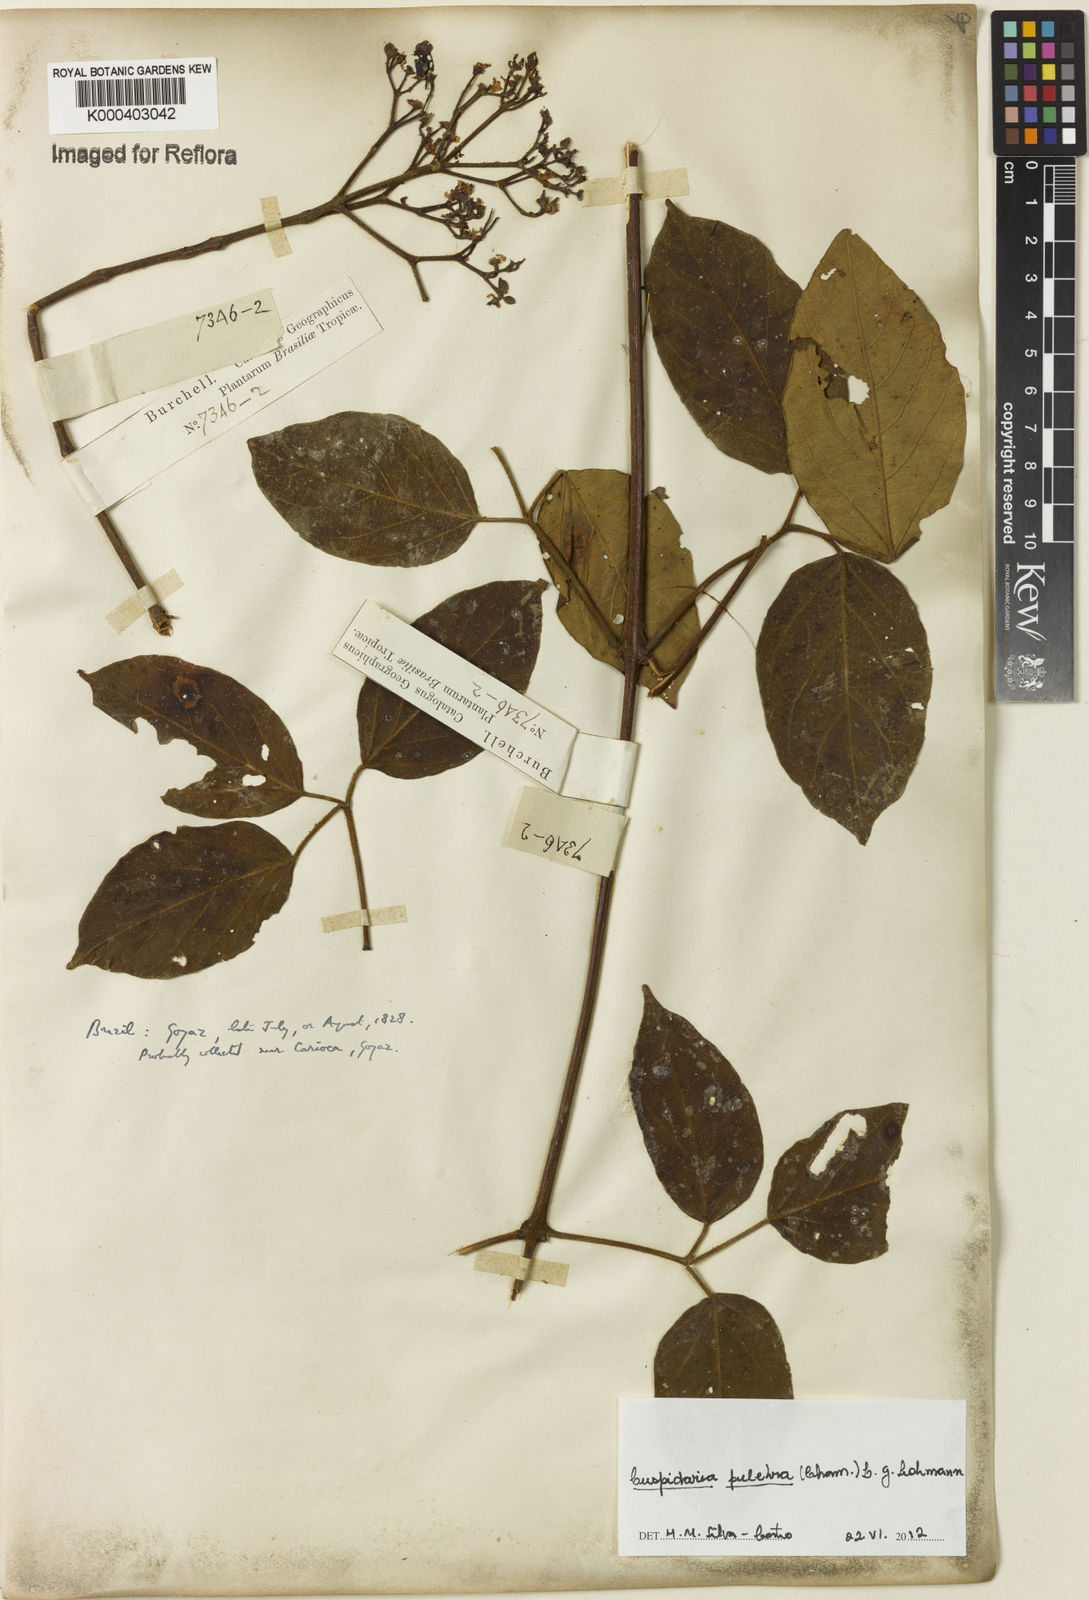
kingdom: Plantae
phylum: Tracheophyta
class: Magnoliopsida
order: Lamiales
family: Bignoniaceae
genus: Cuspidaria
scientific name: Cuspidaria pulchra
